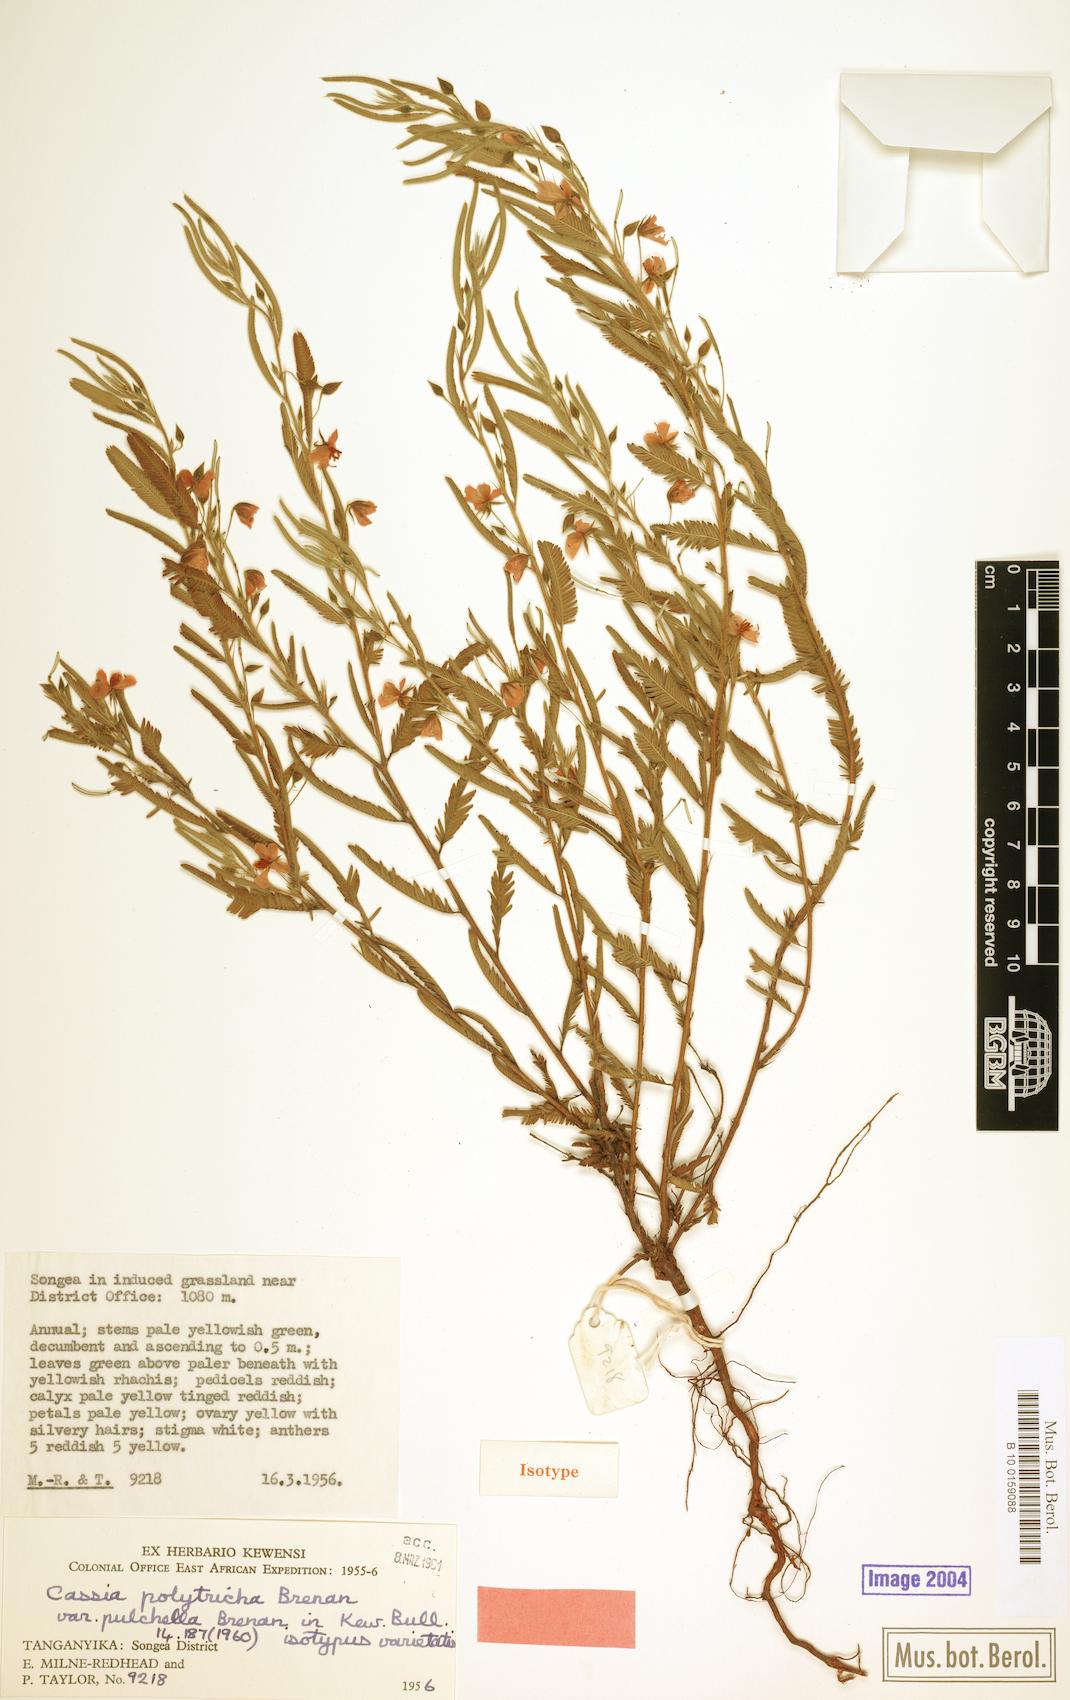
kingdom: Plantae
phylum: Tracheophyta
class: Magnoliopsida
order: Fabales
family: Fabaceae
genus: Chamaecrista
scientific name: Chamaecrista polytricha
